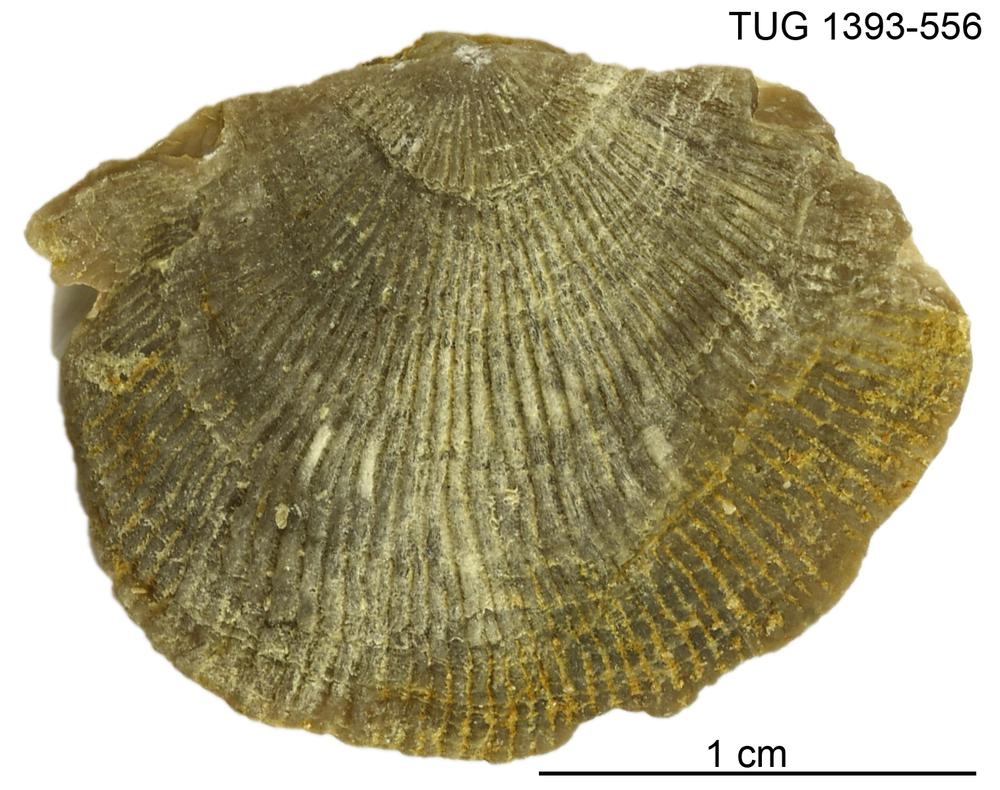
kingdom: Animalia
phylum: Brachiopoda
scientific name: Brachiopoda
